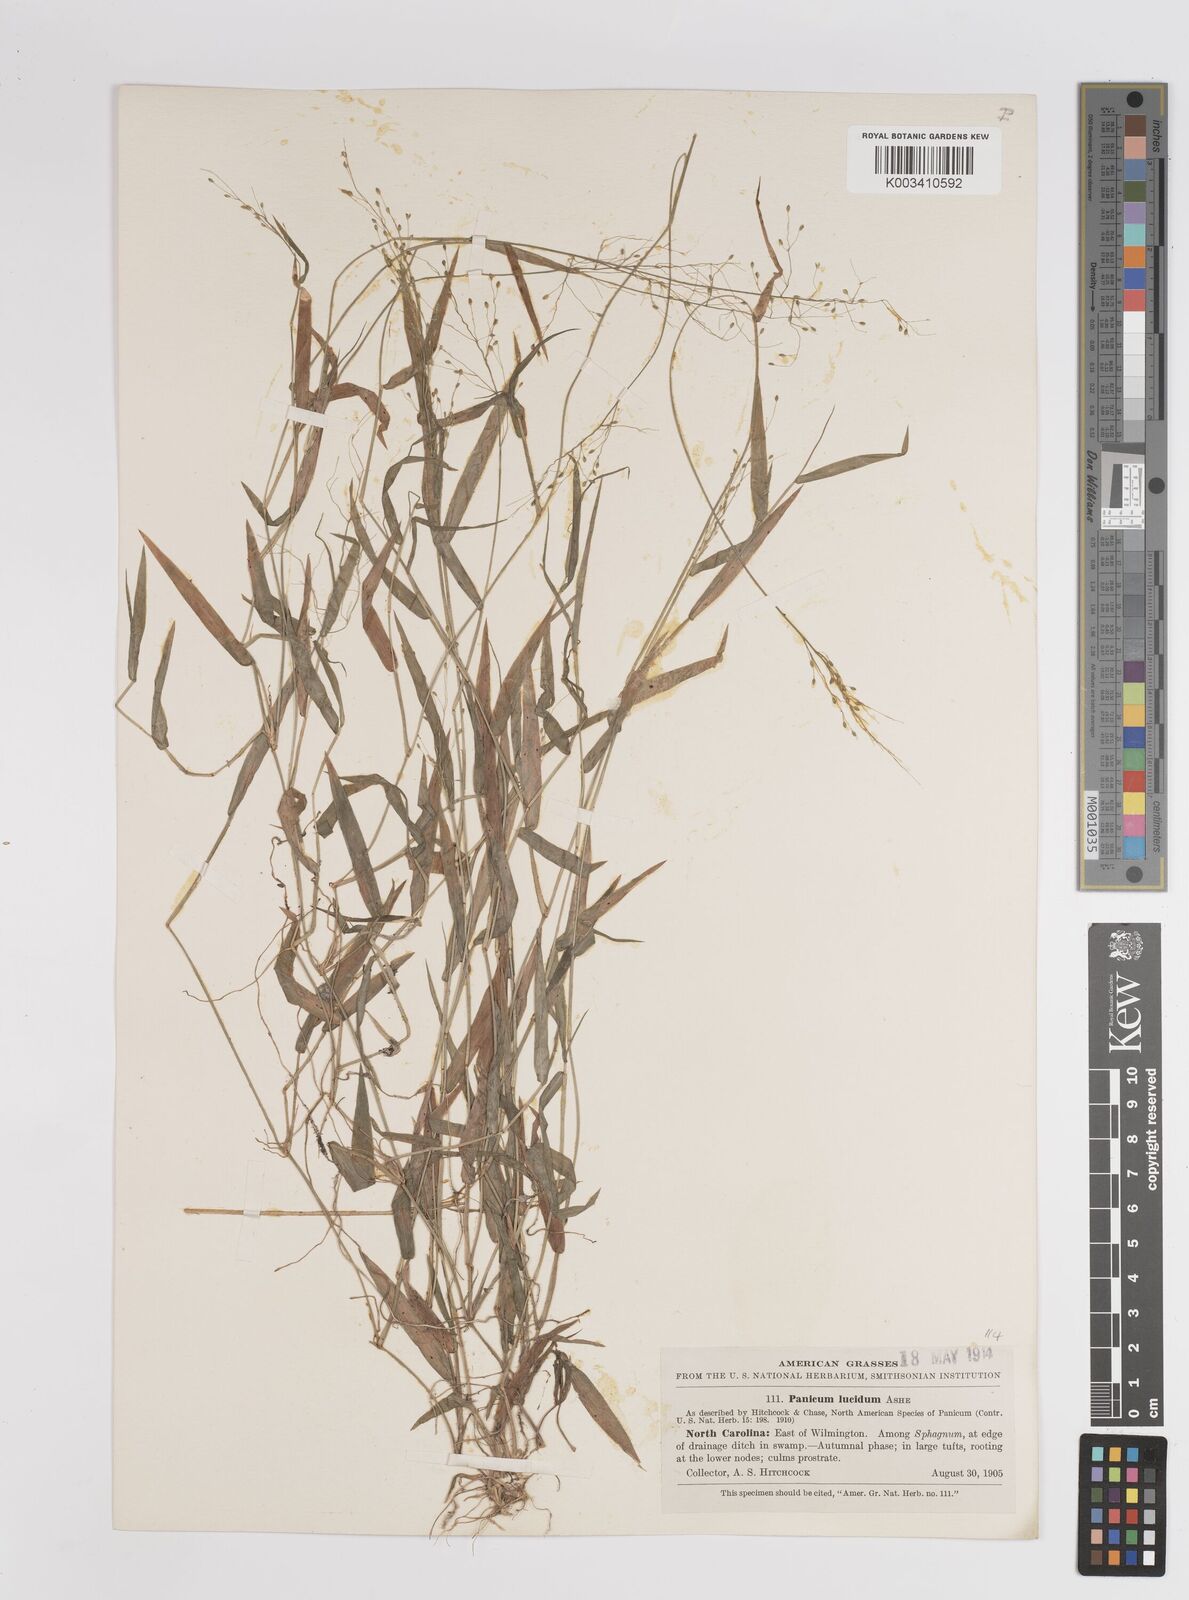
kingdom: Plantae
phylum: Tracheophyta
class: Liliopsida
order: Poales
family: Poaceae
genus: Dichanthelium
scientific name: Dichanthelium lucidum
